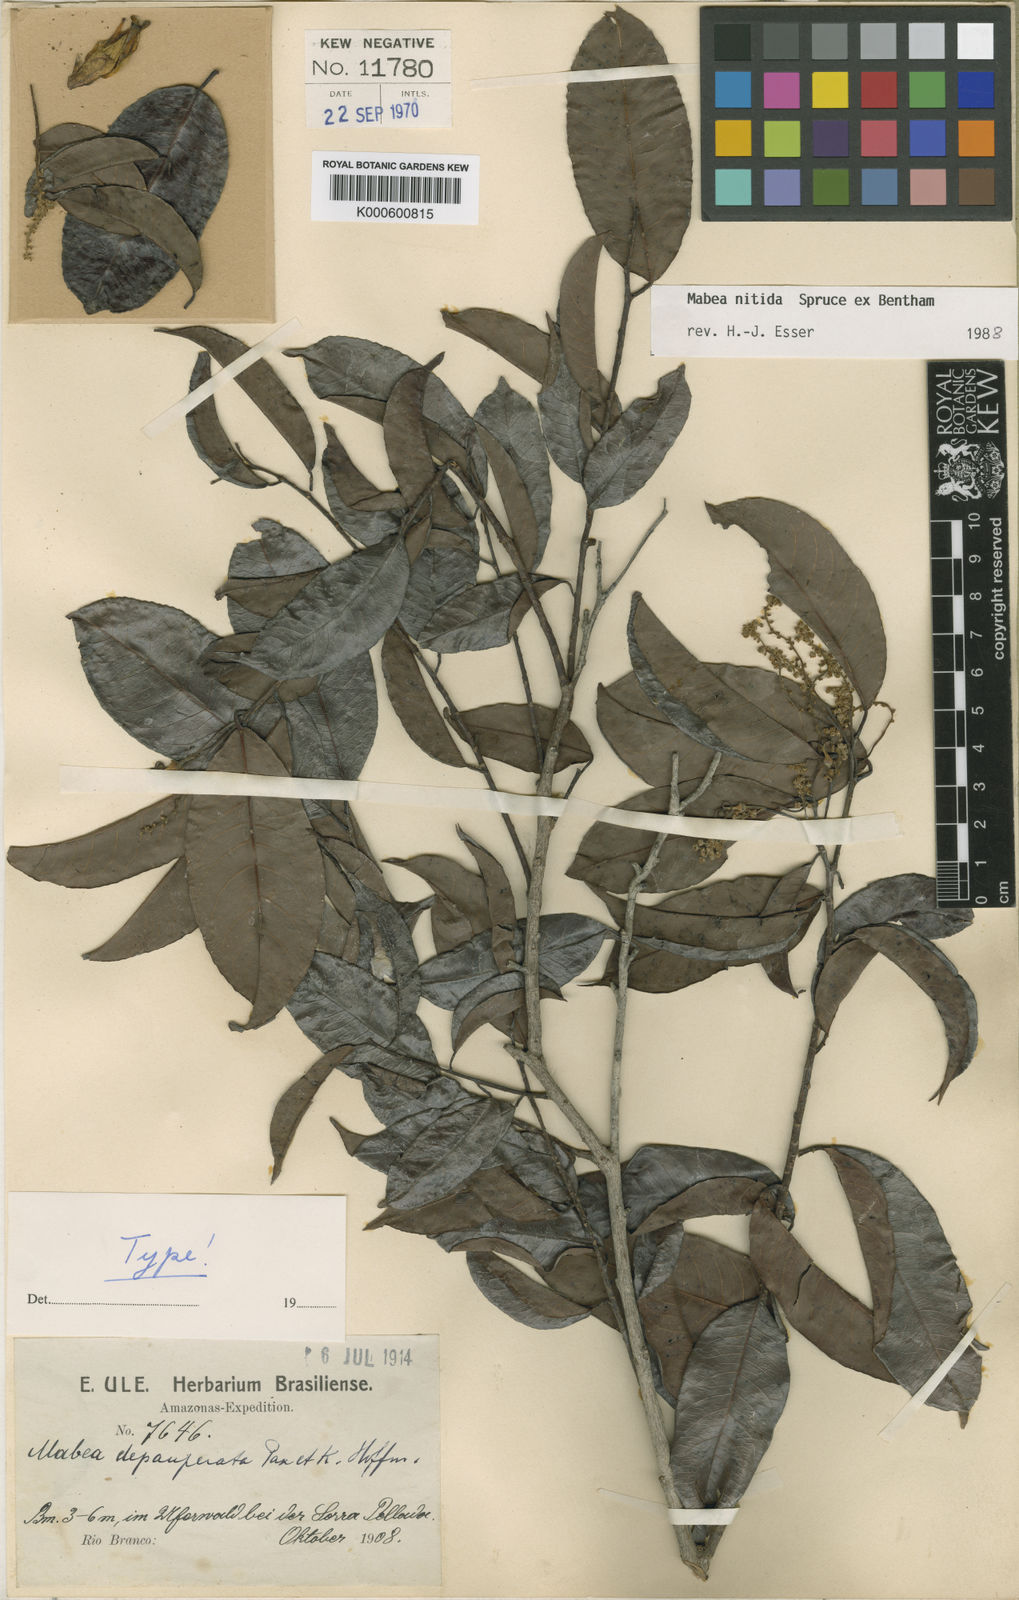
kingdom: Plantae
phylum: Tracheophyta
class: Magnoliopsida
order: Malpighiales
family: Euphorbiaceae
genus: Mabea
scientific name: Mabea nitida
